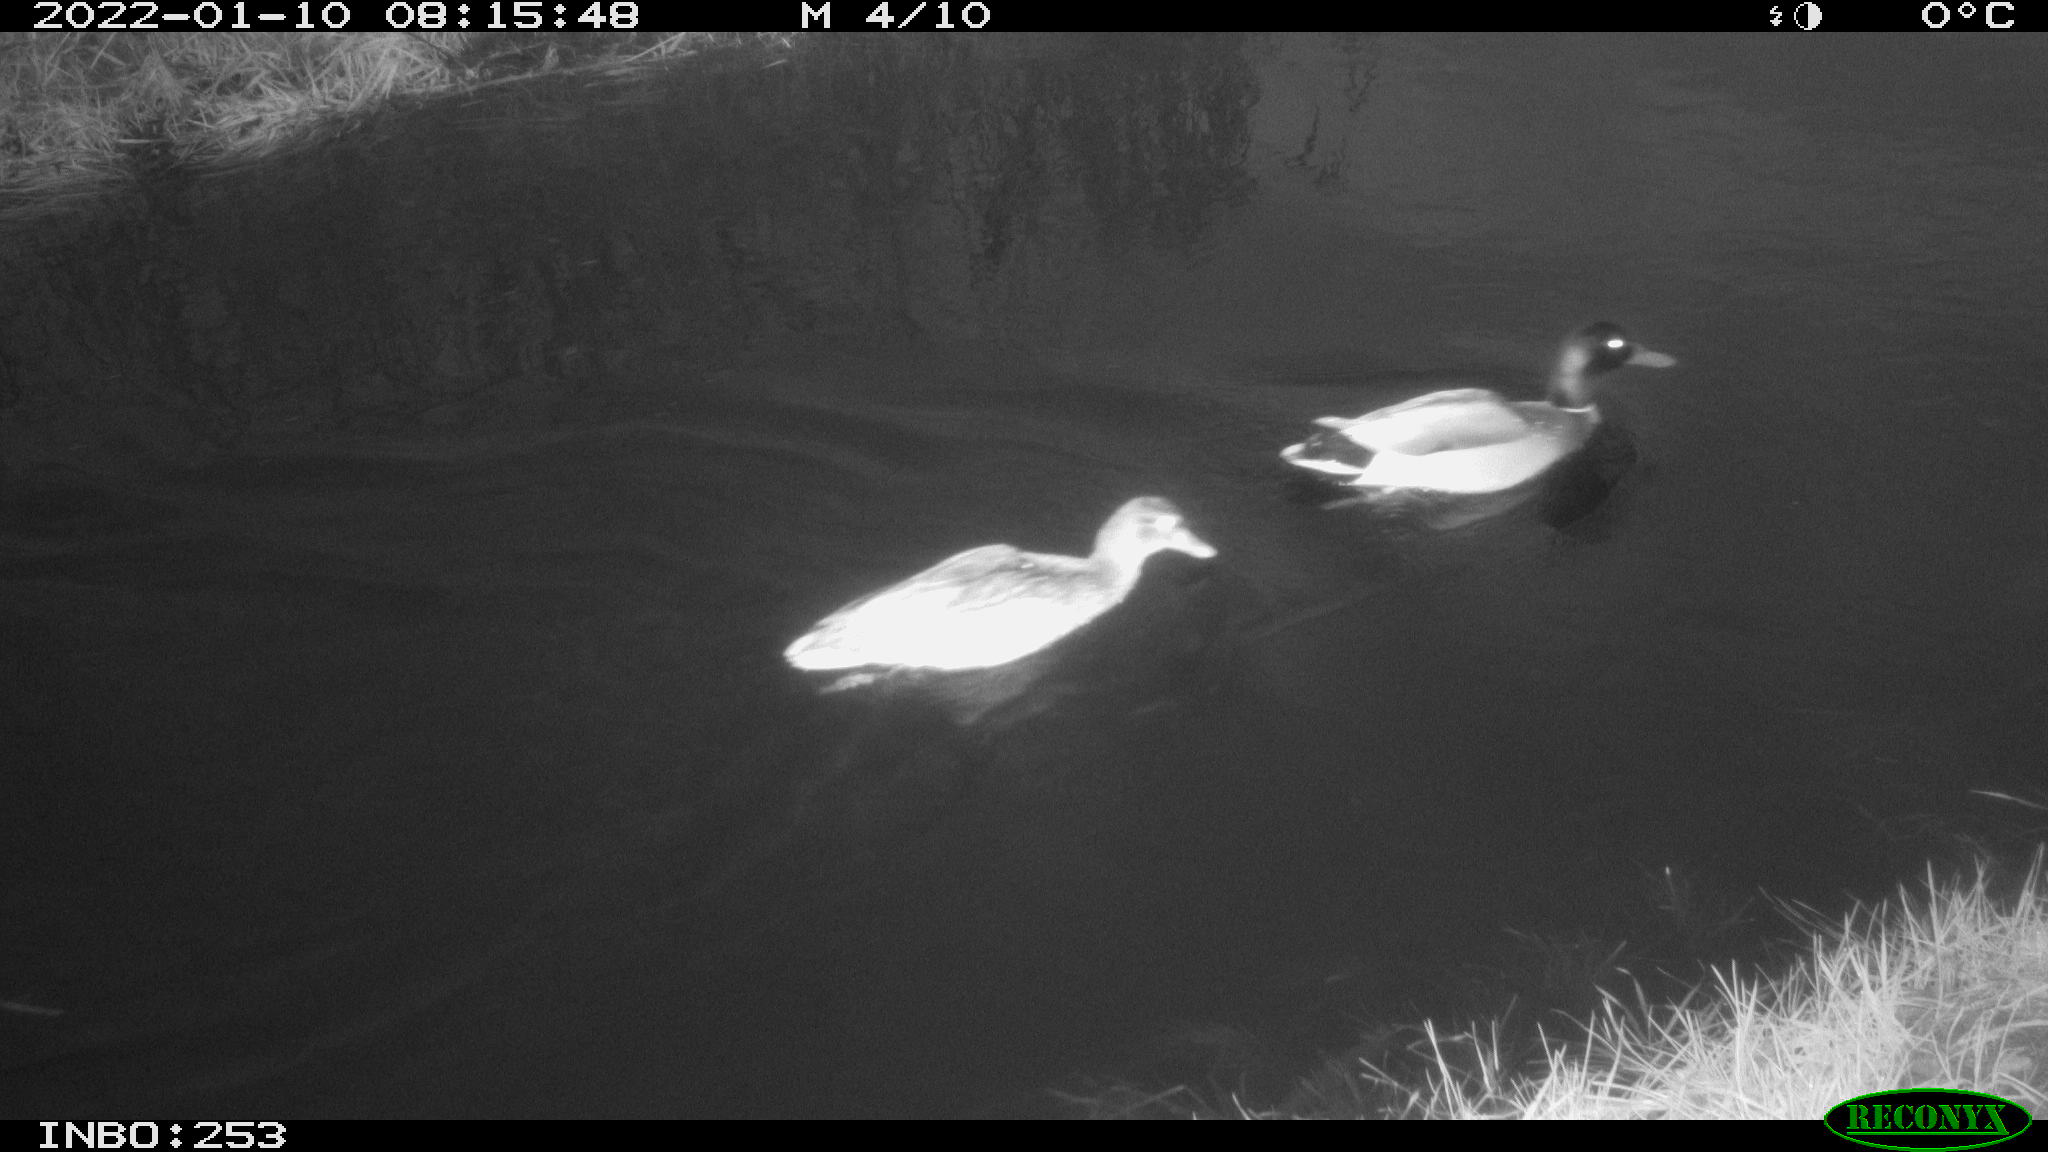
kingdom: Animalia
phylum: Chordata
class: Aves
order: Anseriformes
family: Anatidae
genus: Anas
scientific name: Anas
